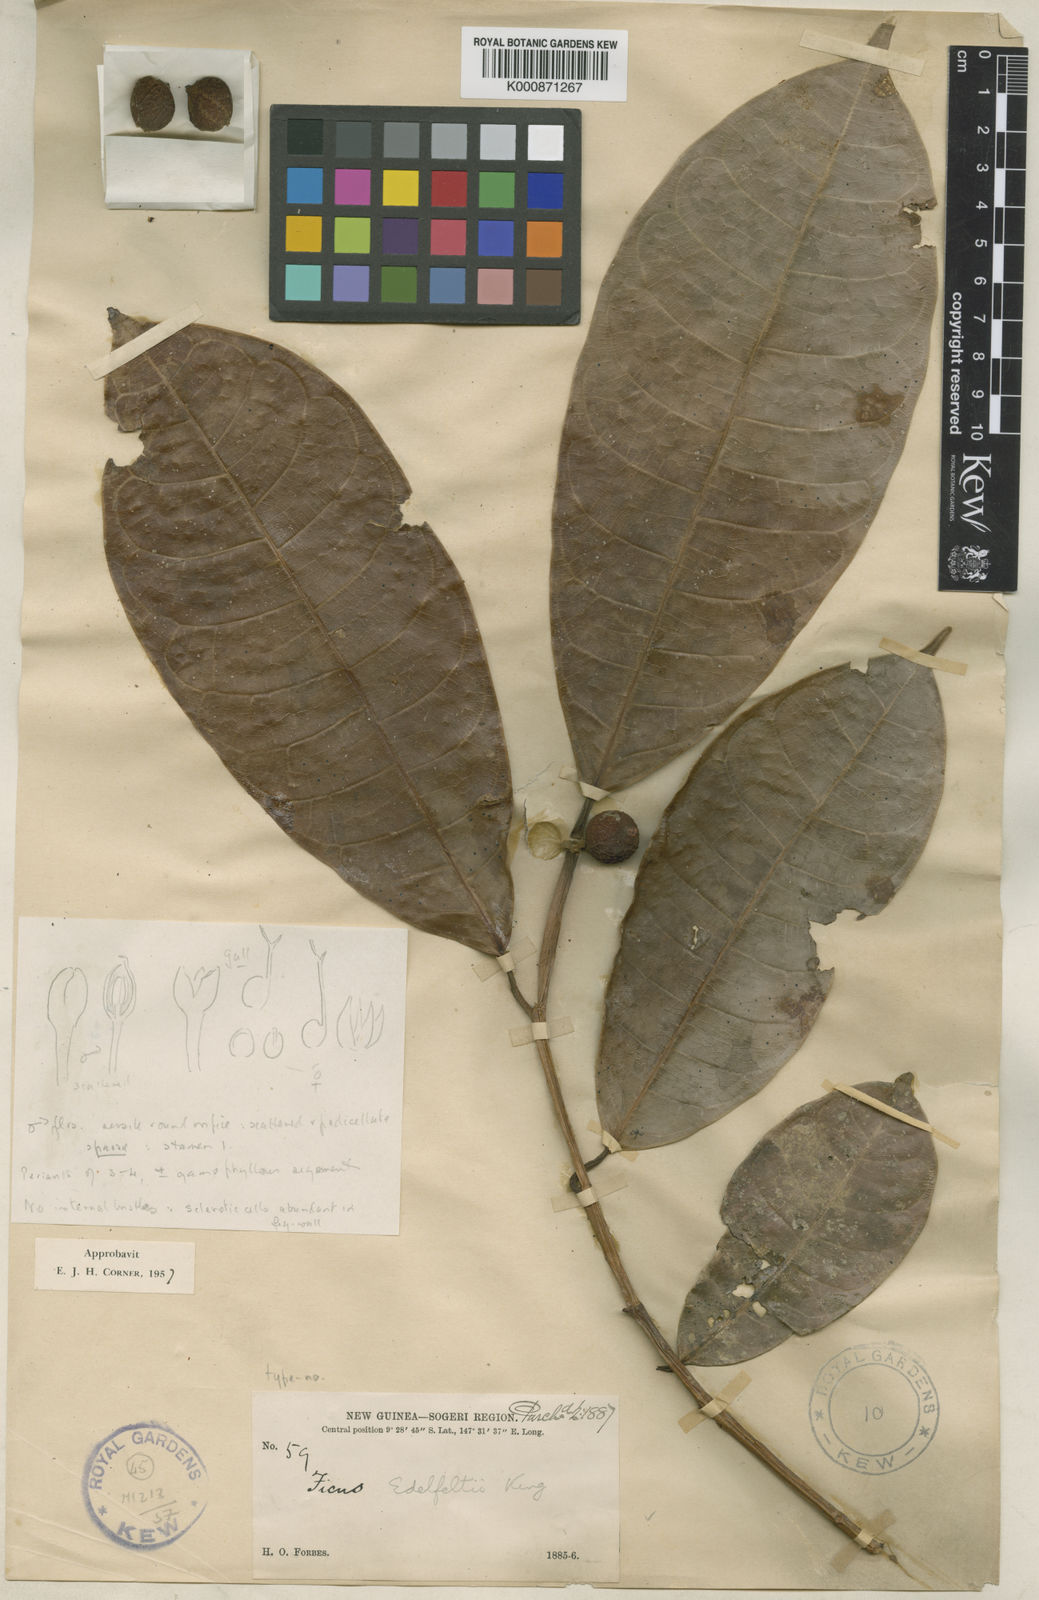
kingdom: Plantae
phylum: Tracheophyta
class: Magnoliopsida
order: Rosales
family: Moraceae
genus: Ficus
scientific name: Ficus edelfeltii
